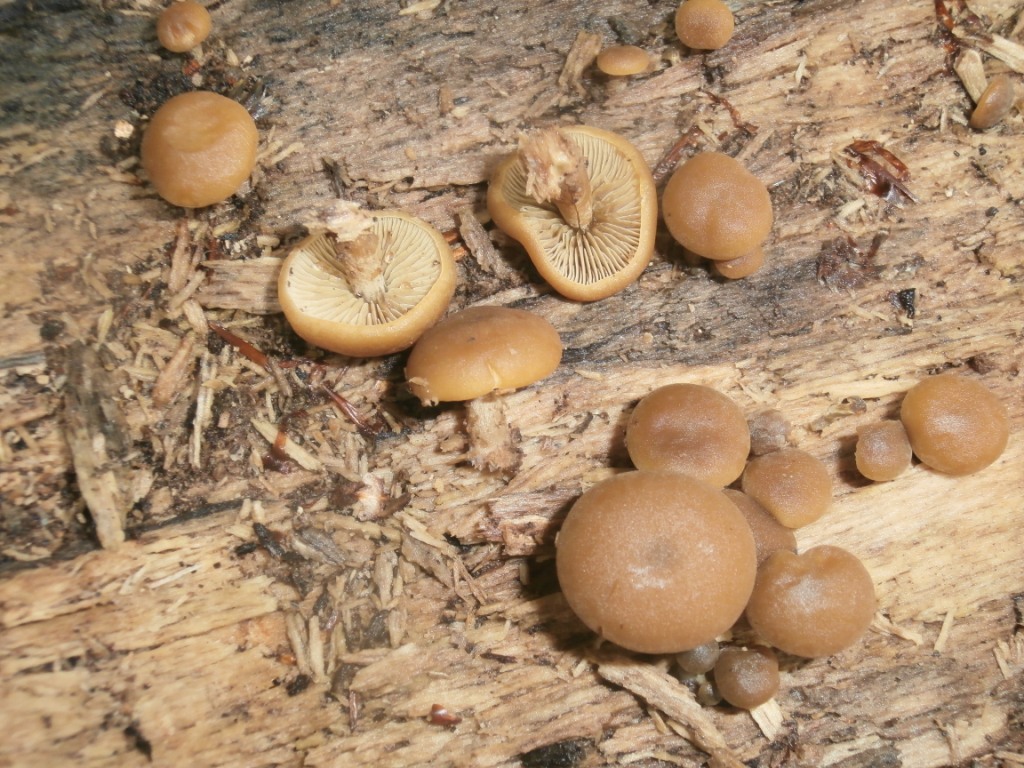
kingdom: Fungi
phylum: Basidiomycota
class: Agaricomycetes
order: Agaricales
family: Crepidotaceae
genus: Simocybe
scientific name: Simocybe sumptuosa
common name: stor skyggehat
